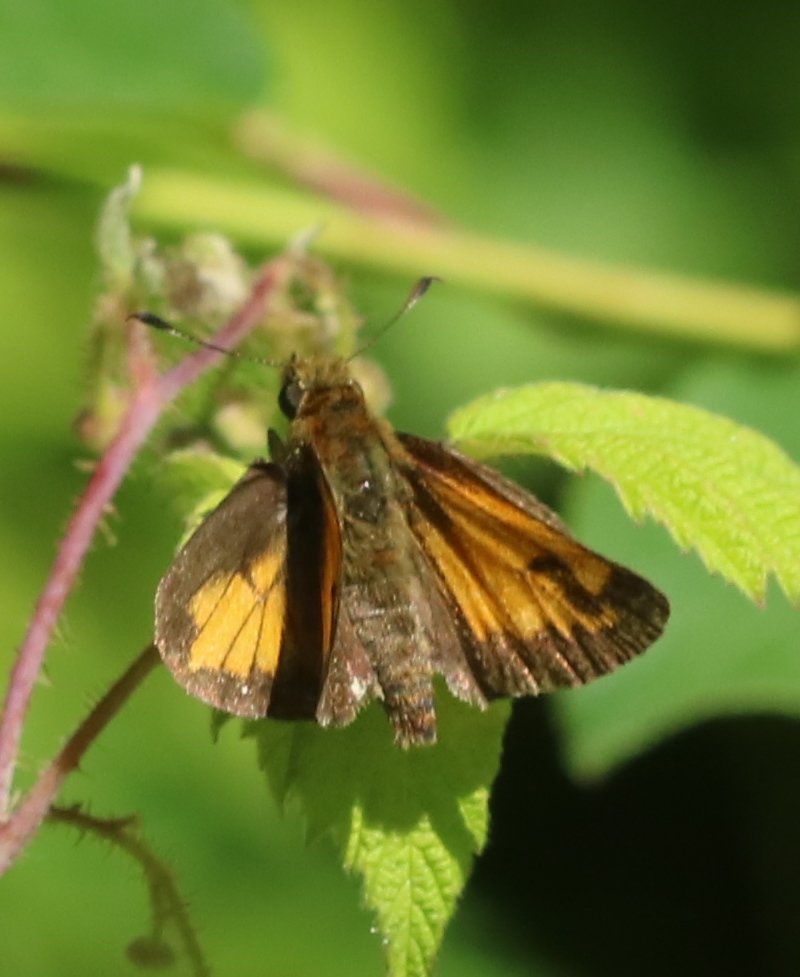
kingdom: Animalia
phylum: Arthropoda
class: Insecta
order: Lepidoptera
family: Hesperiidae
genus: Lon
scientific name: Lon hobomok
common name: Hobomok Skipper
